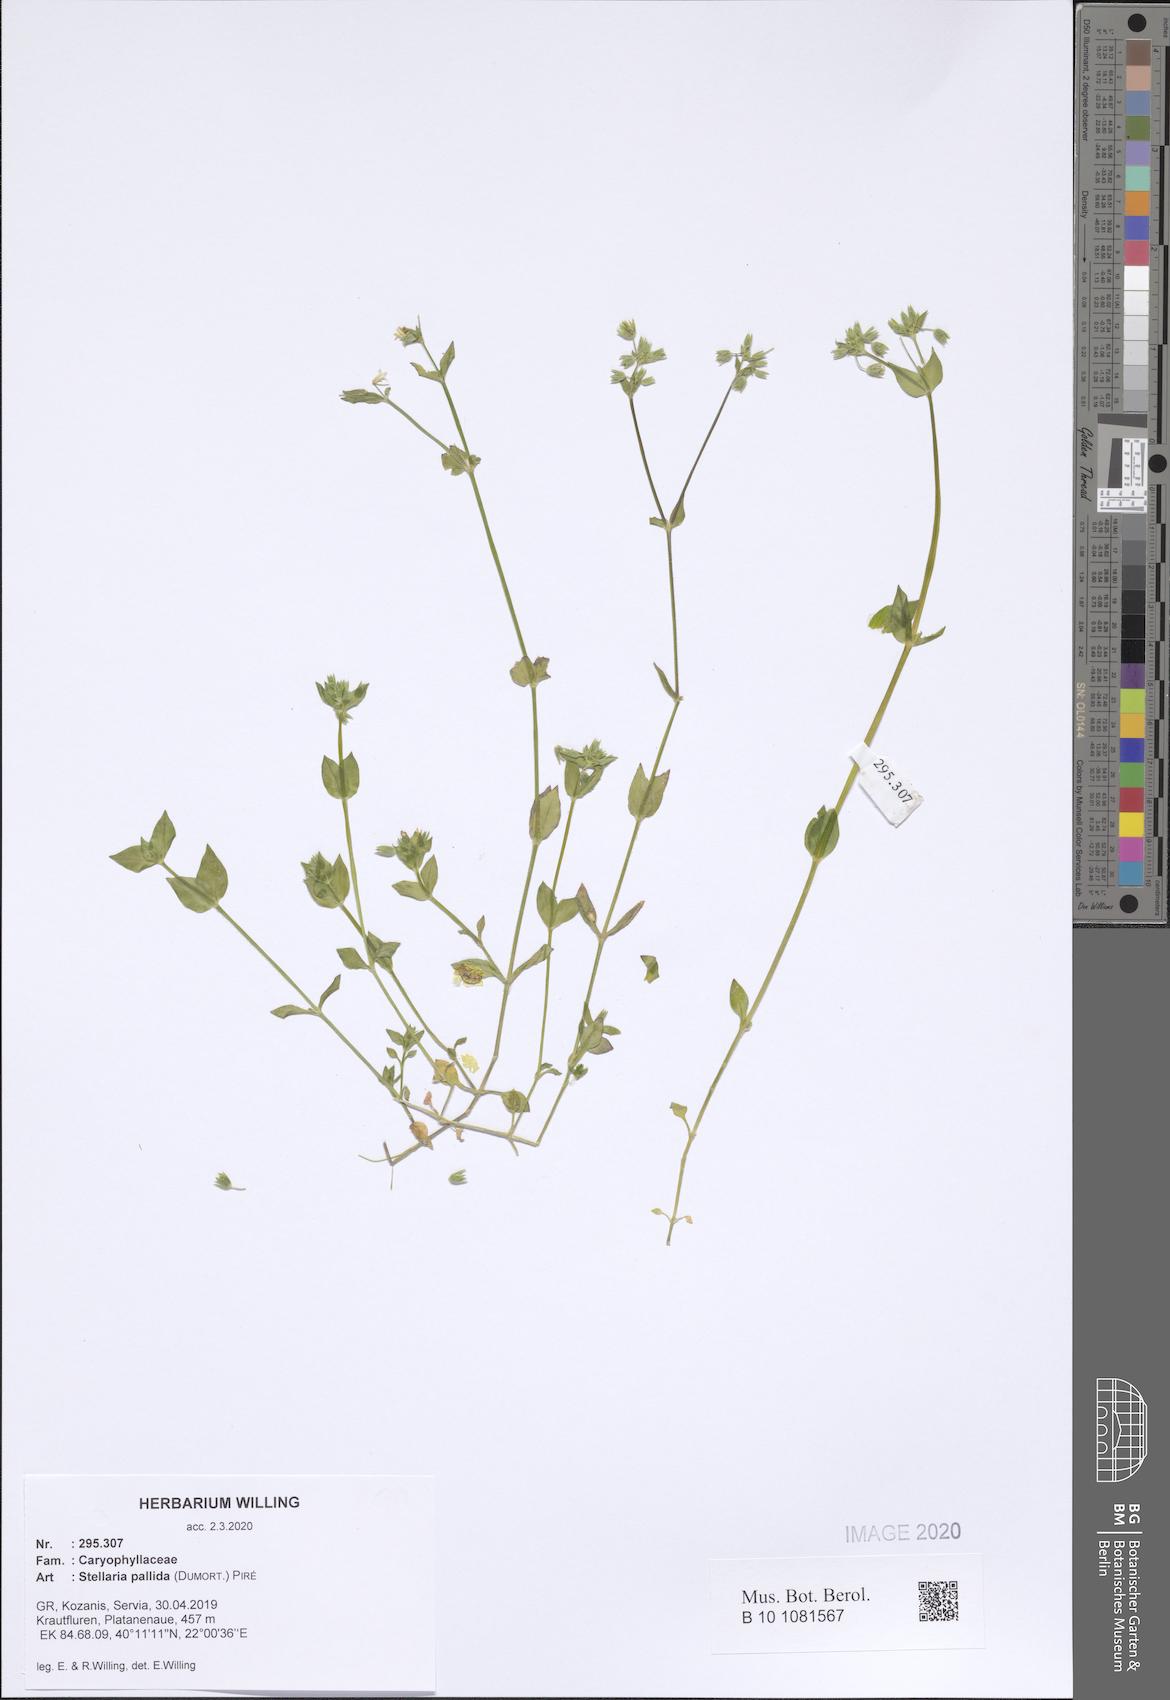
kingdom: Plantae
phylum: Tracheophyta
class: Magnoliopsida
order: Caryophyllales
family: Caryophyllaceae
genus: Stellaria
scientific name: Stellaria apetala
